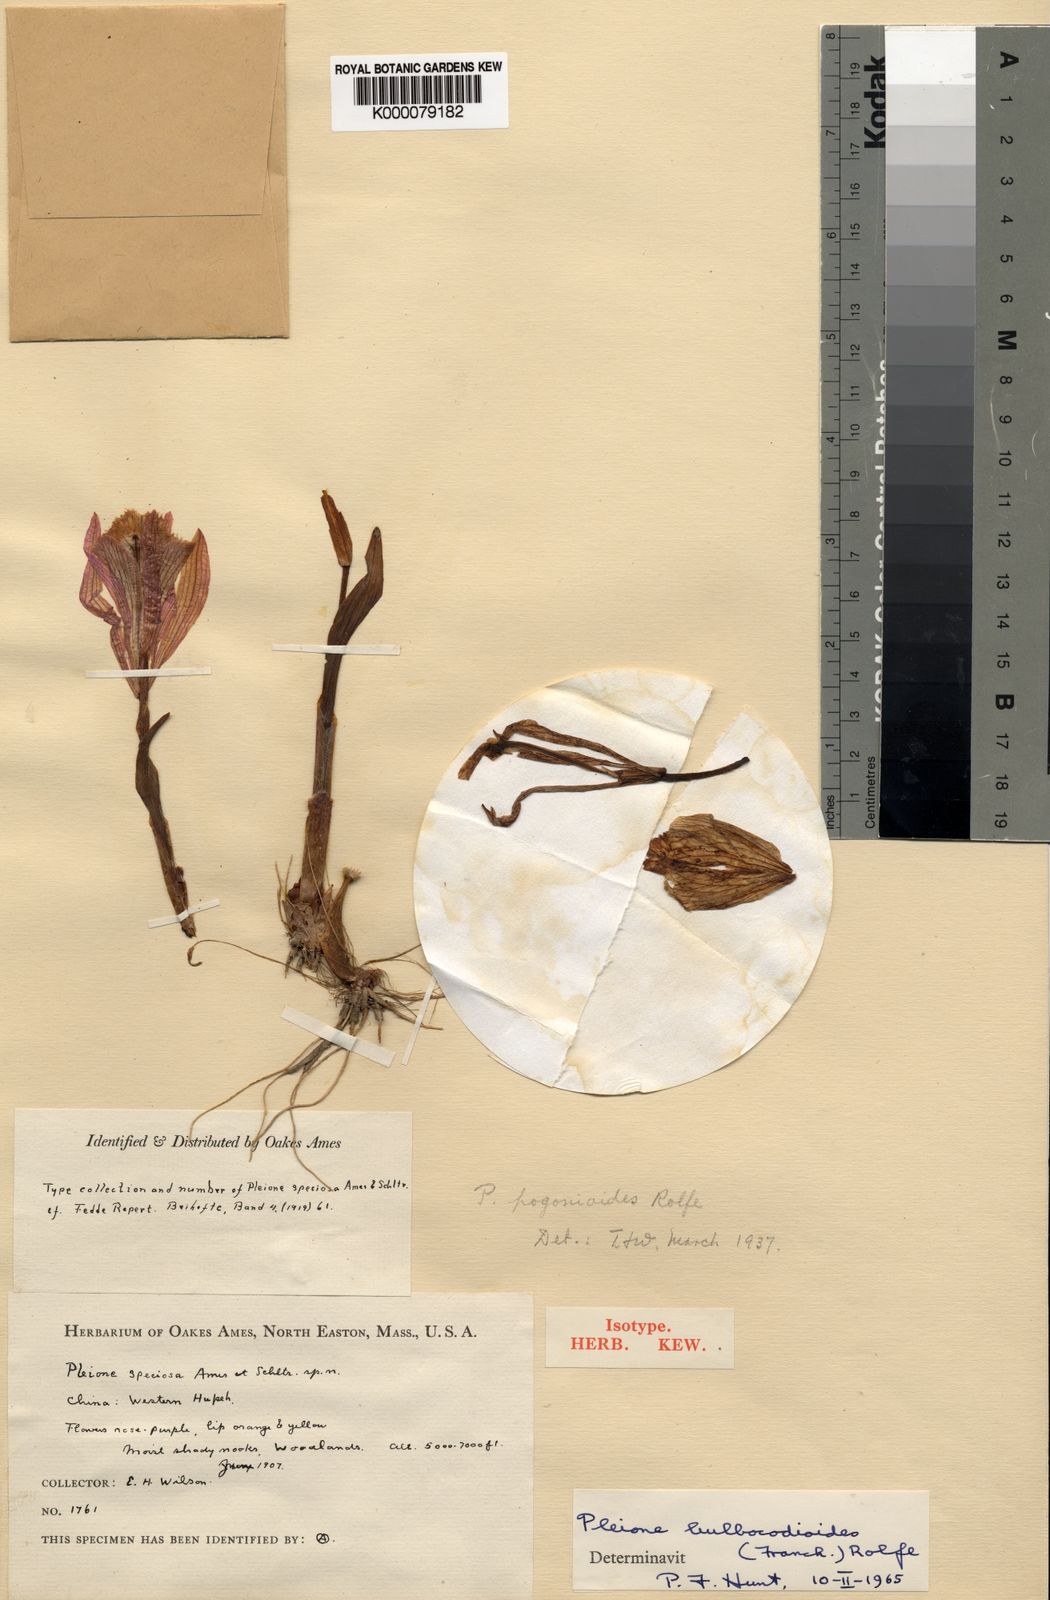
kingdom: Plantae
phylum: Tracheophyta
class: Liliopsida
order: Asparagales
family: Orchidaceae
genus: Pleione
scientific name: Pleione pleionoides
